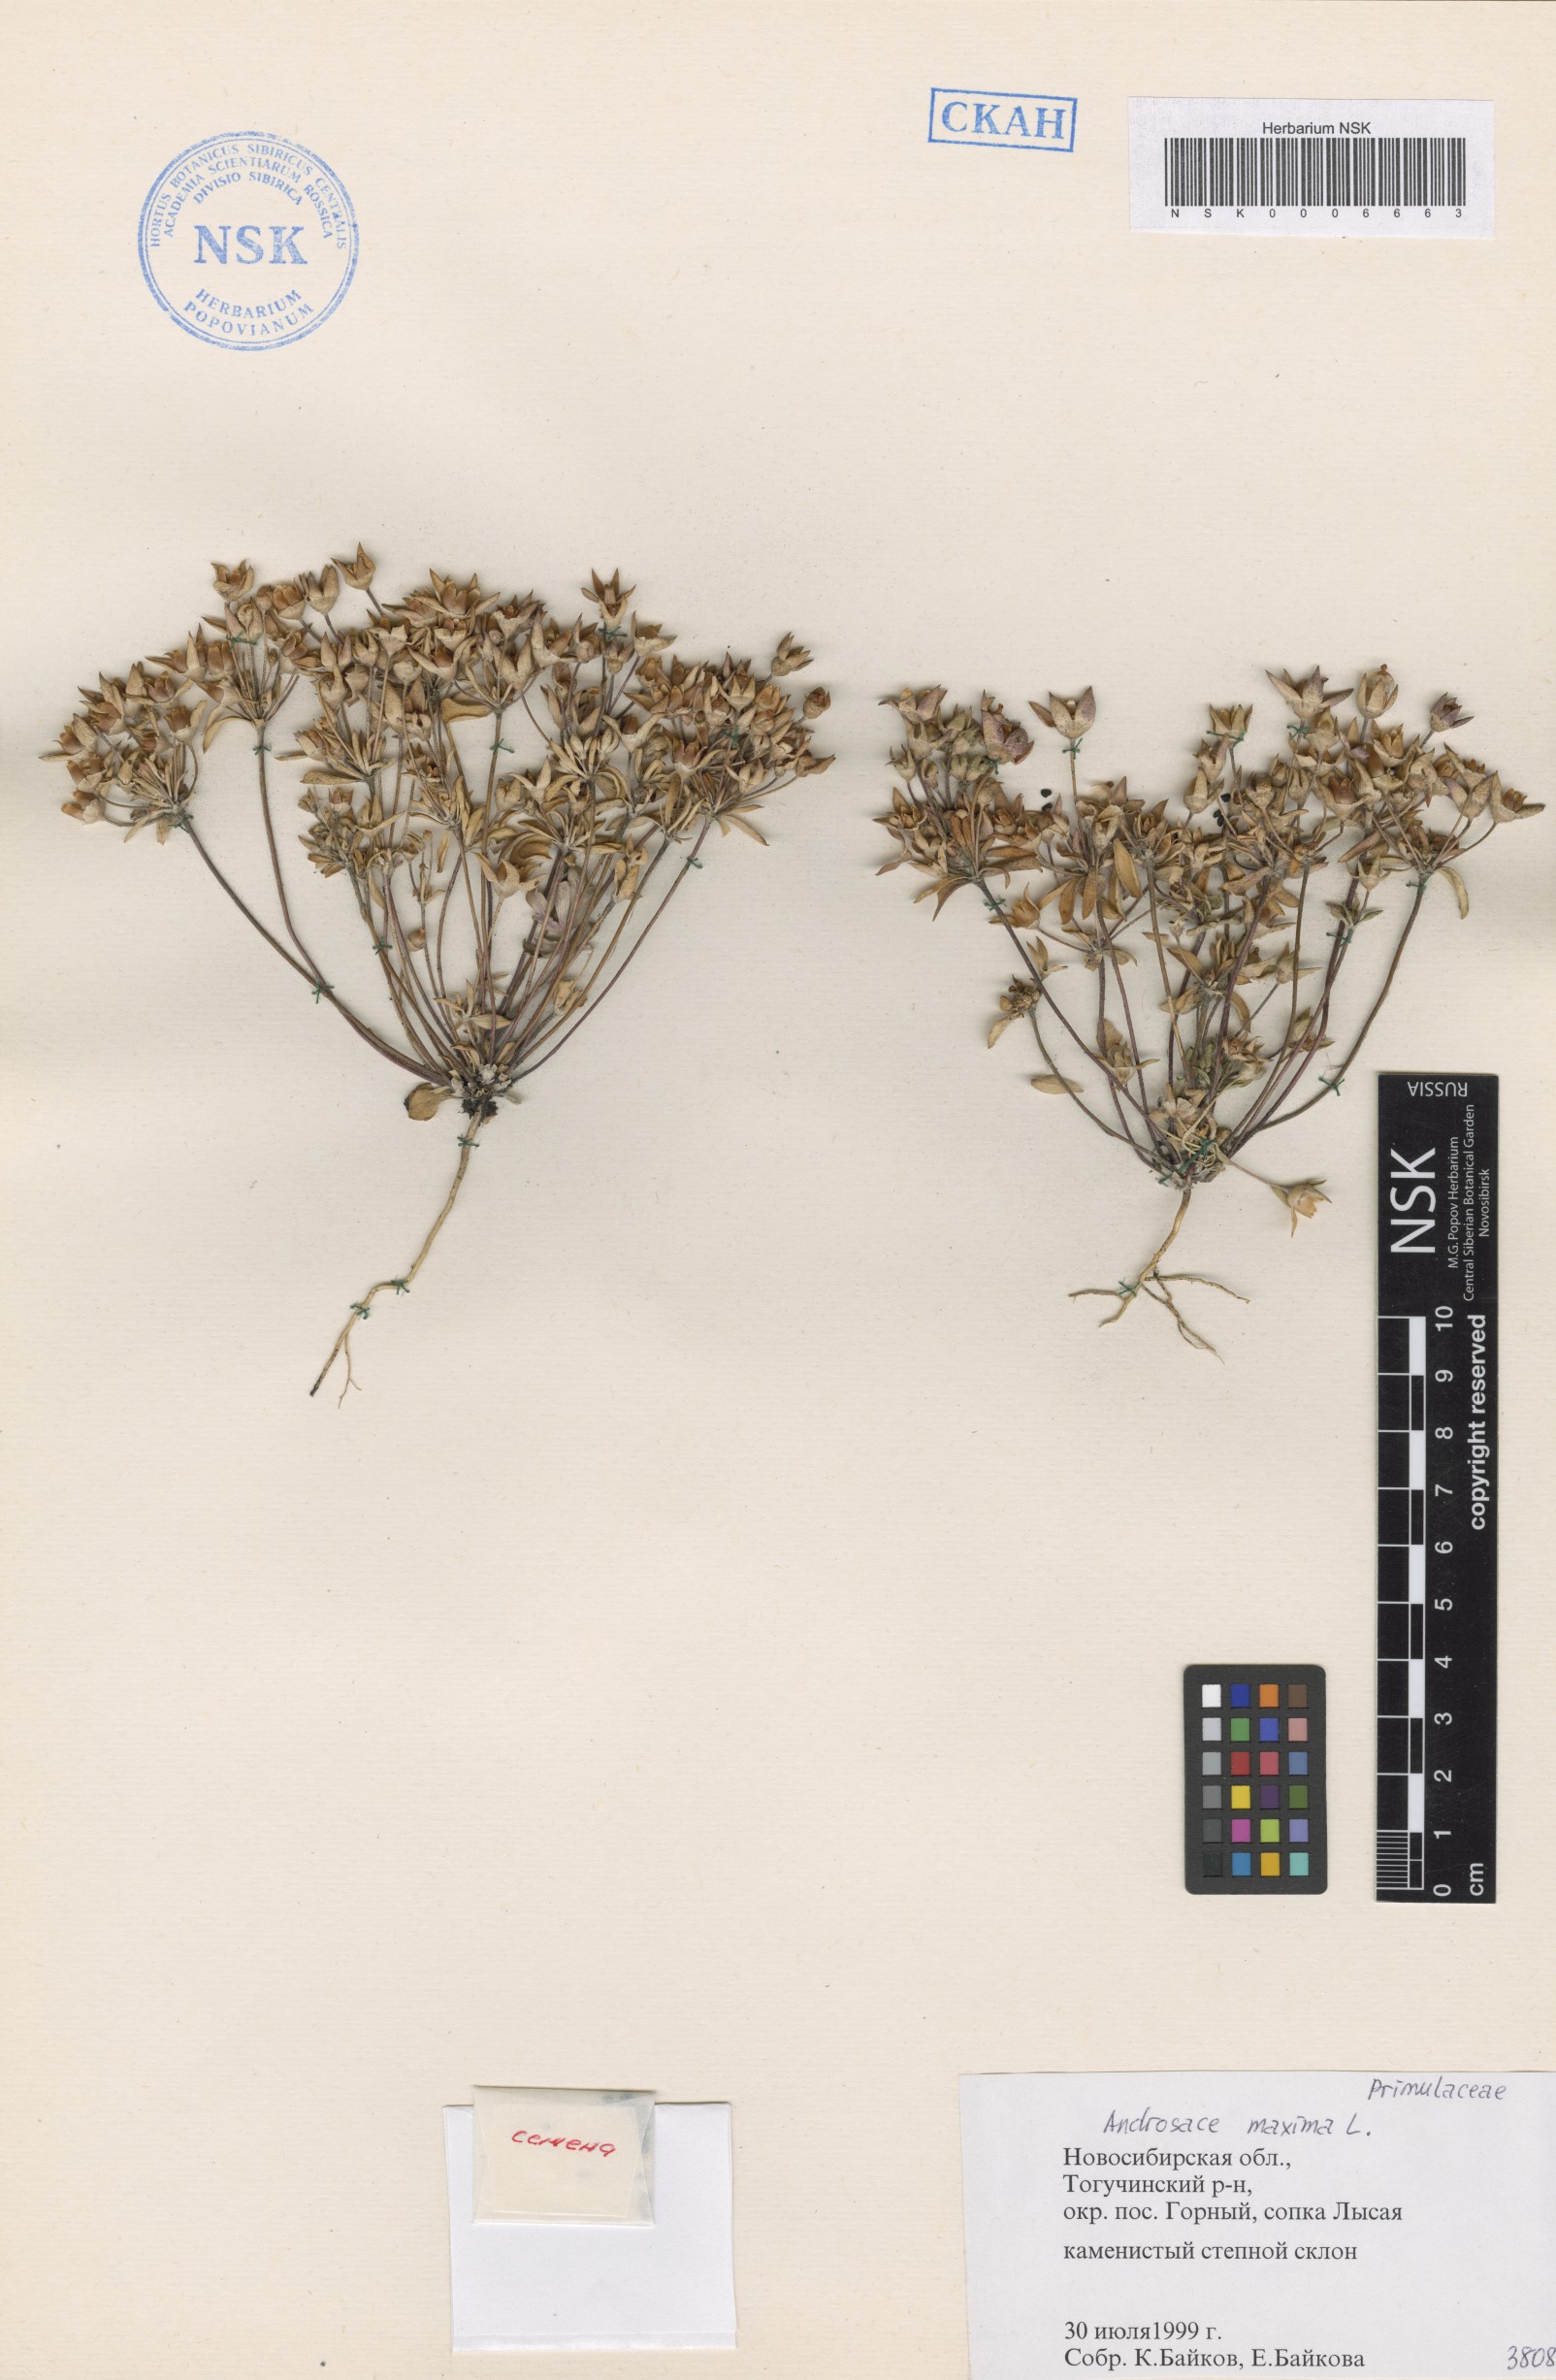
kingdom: Plantae
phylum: Tracheophyta
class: Magnoliopsida
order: Ericales
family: Primulaceae
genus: Androsace
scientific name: Androsace maxima
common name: Annual androsace
